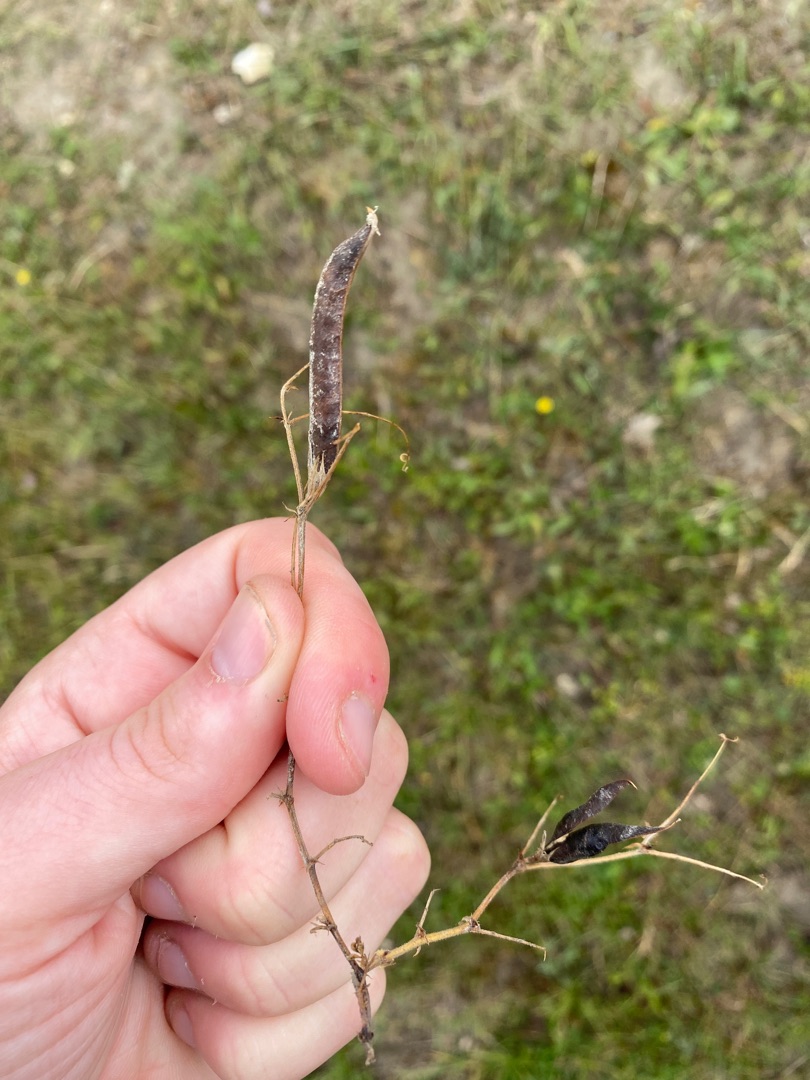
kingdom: Plantae
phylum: Tracheophyta
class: Magnoliopsida
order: Fabales
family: Fabaceae
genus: Vicia
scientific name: Vicia sativa
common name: Foder-vikke
